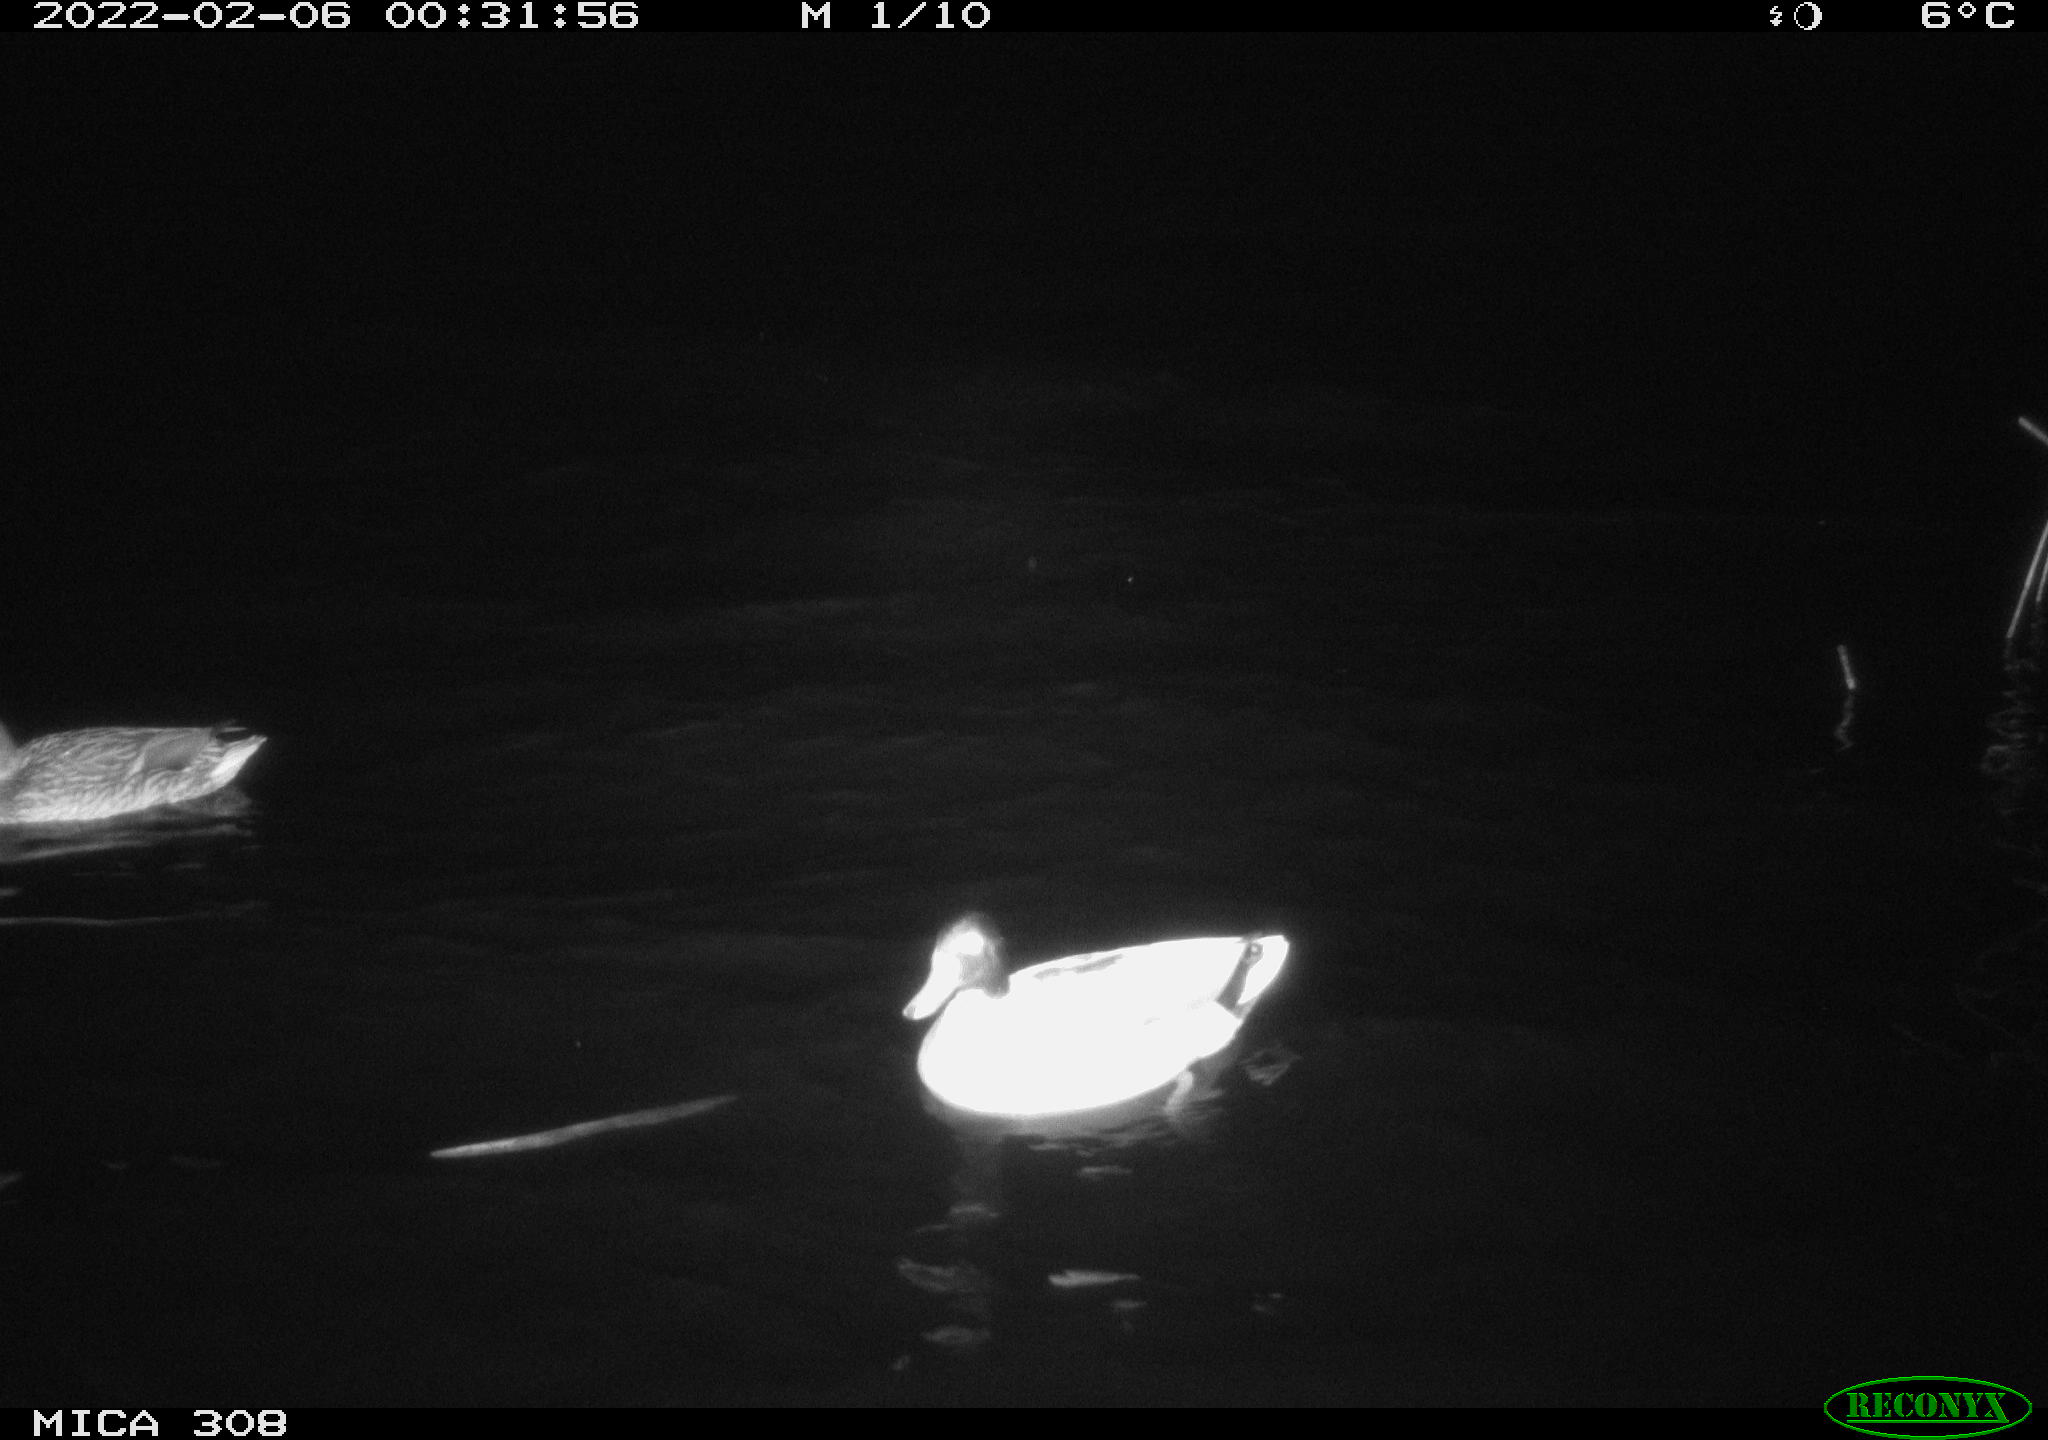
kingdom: Animalia
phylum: Chordata
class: Aves
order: Anseriformes
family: Anatidae
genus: Anas
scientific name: Anas platyrhynchos
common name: Mallard
